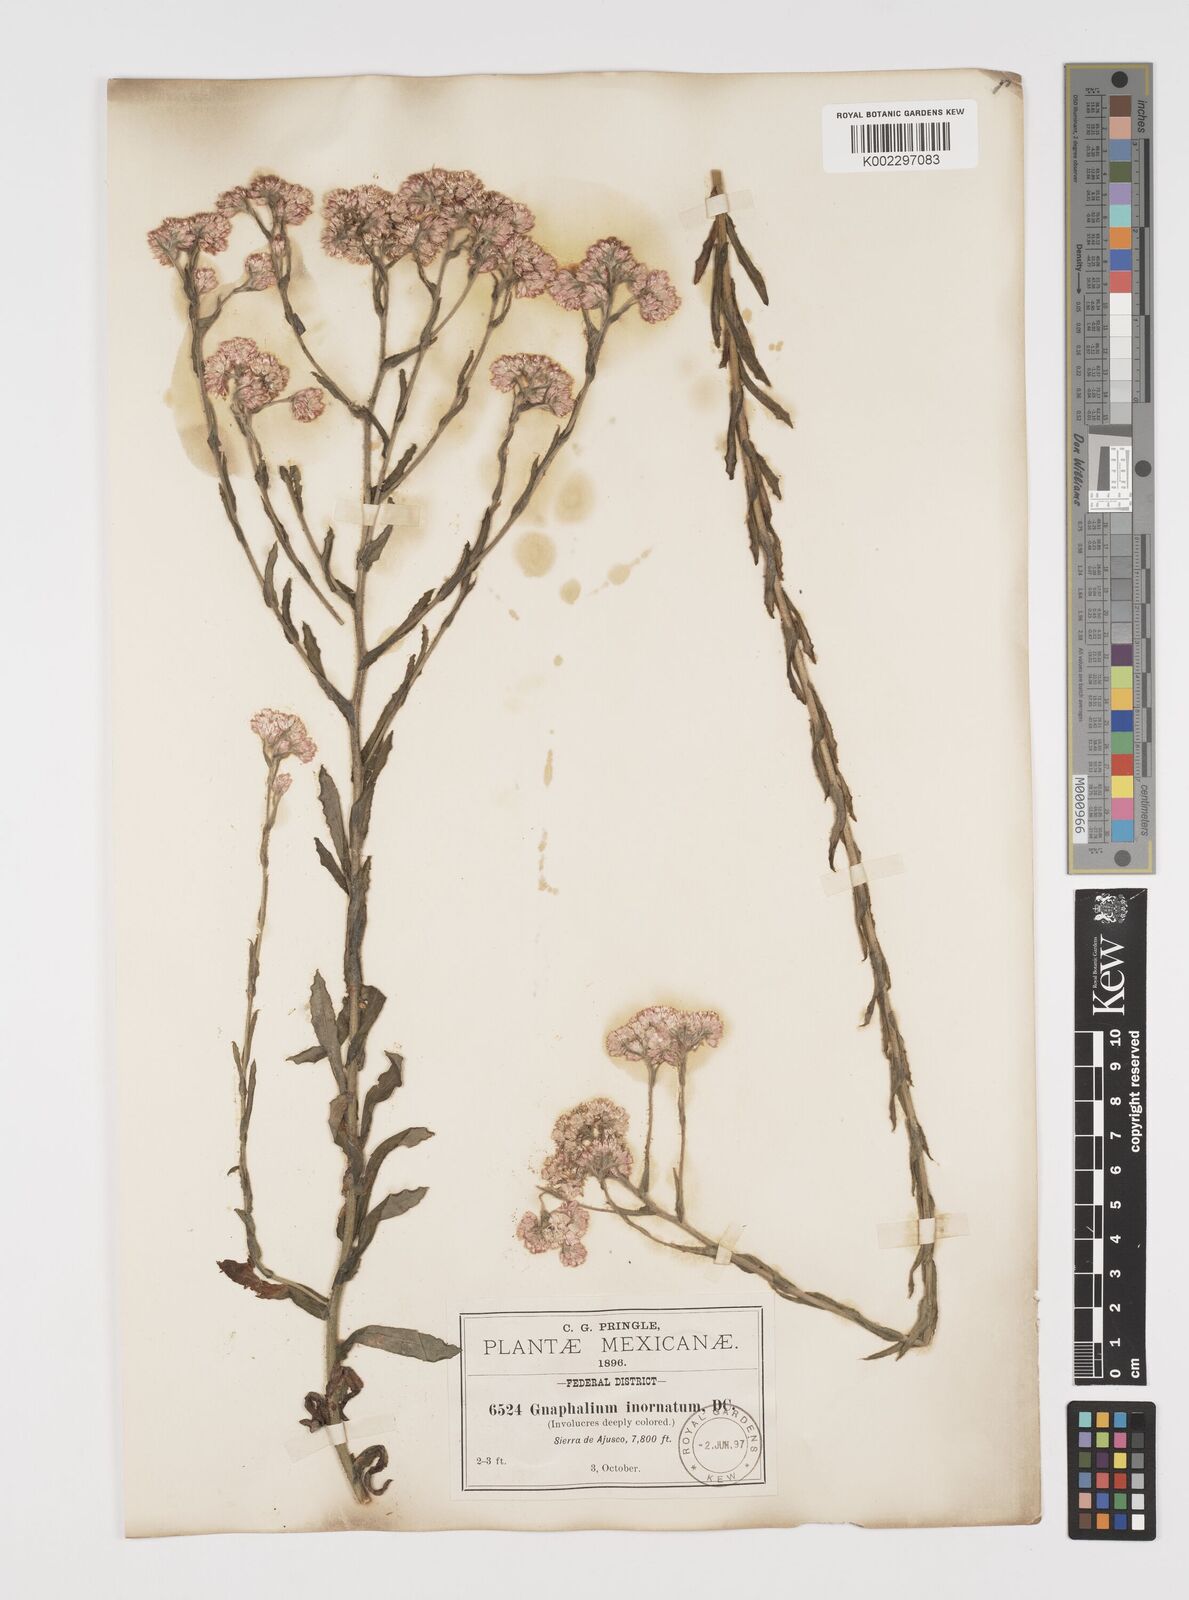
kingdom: Plantae
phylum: Tracheophyta
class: Magnoliopsida
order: Asterales
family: Asteraceae
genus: Pseudognaphalium
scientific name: Pseudognaphalium inornatum
